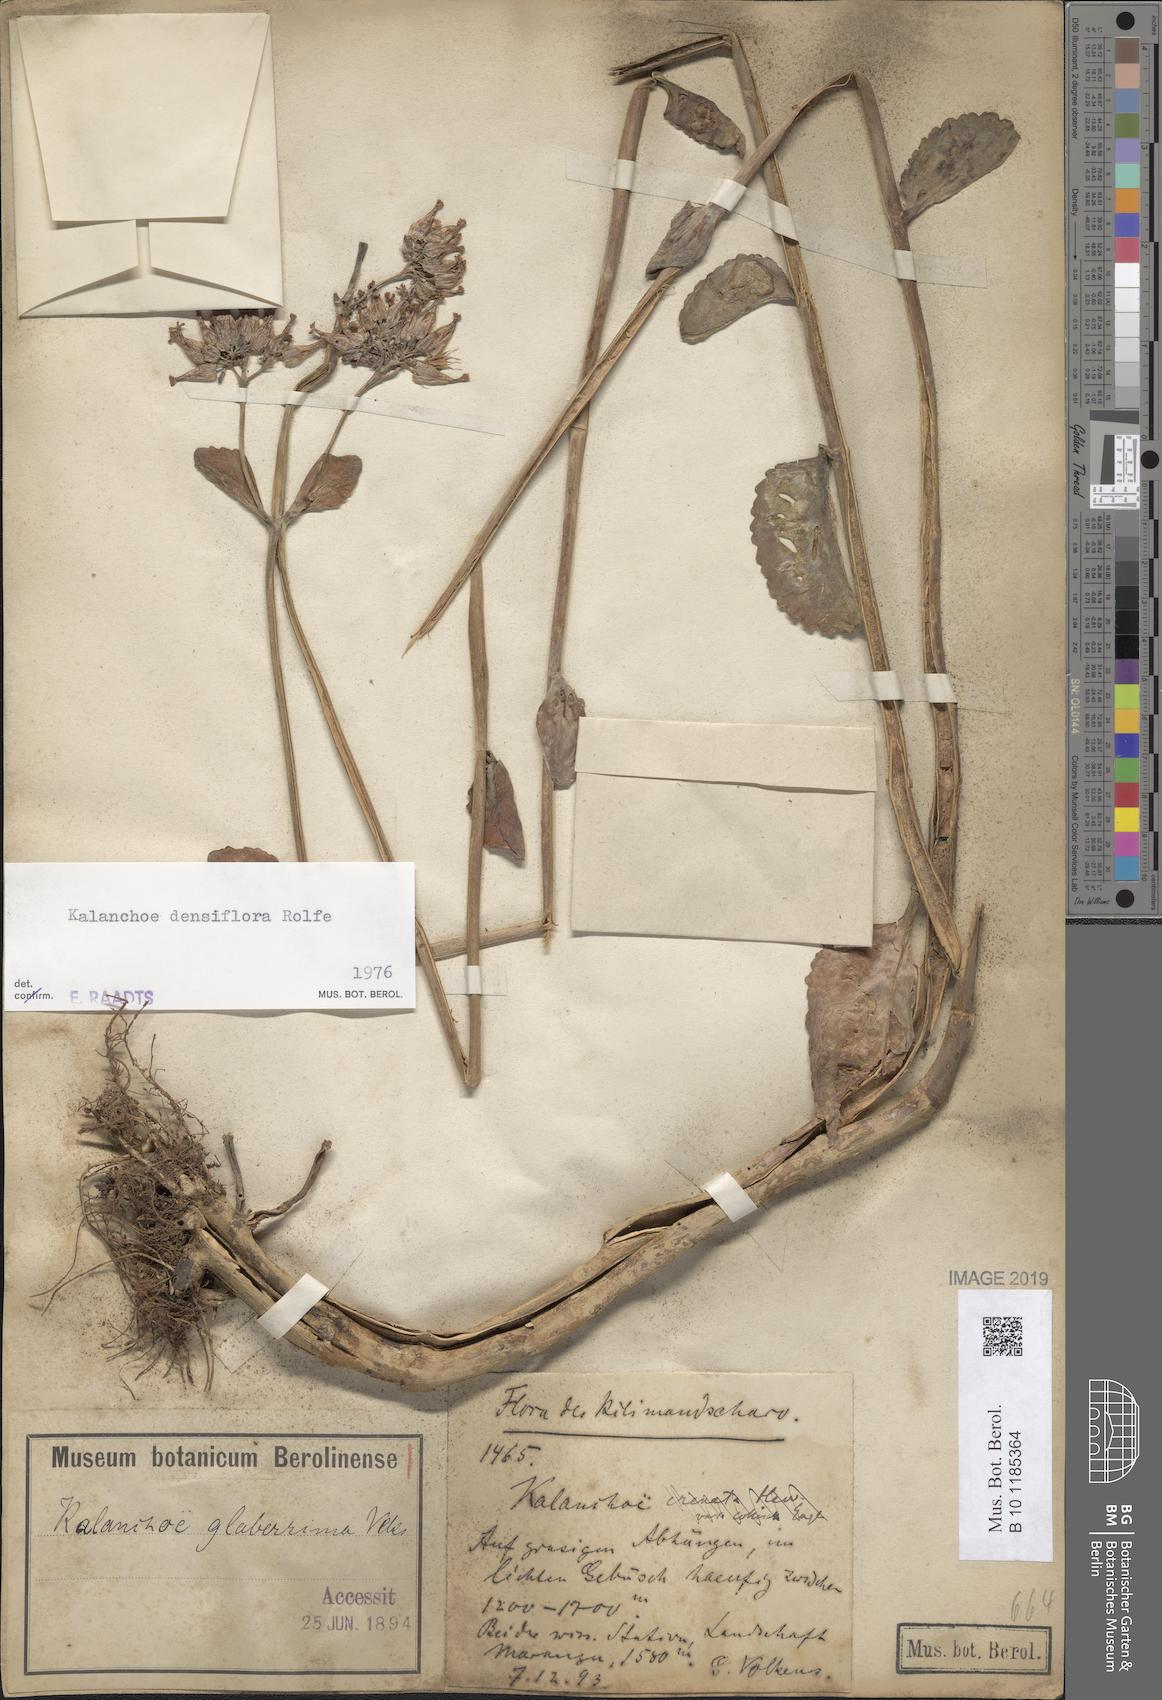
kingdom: Plantae
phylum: Tracheophyta
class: Magnoliopsida
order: Saxifragales
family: Crassulaceae
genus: Kalanchoe
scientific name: Kalanchoe densiflora
